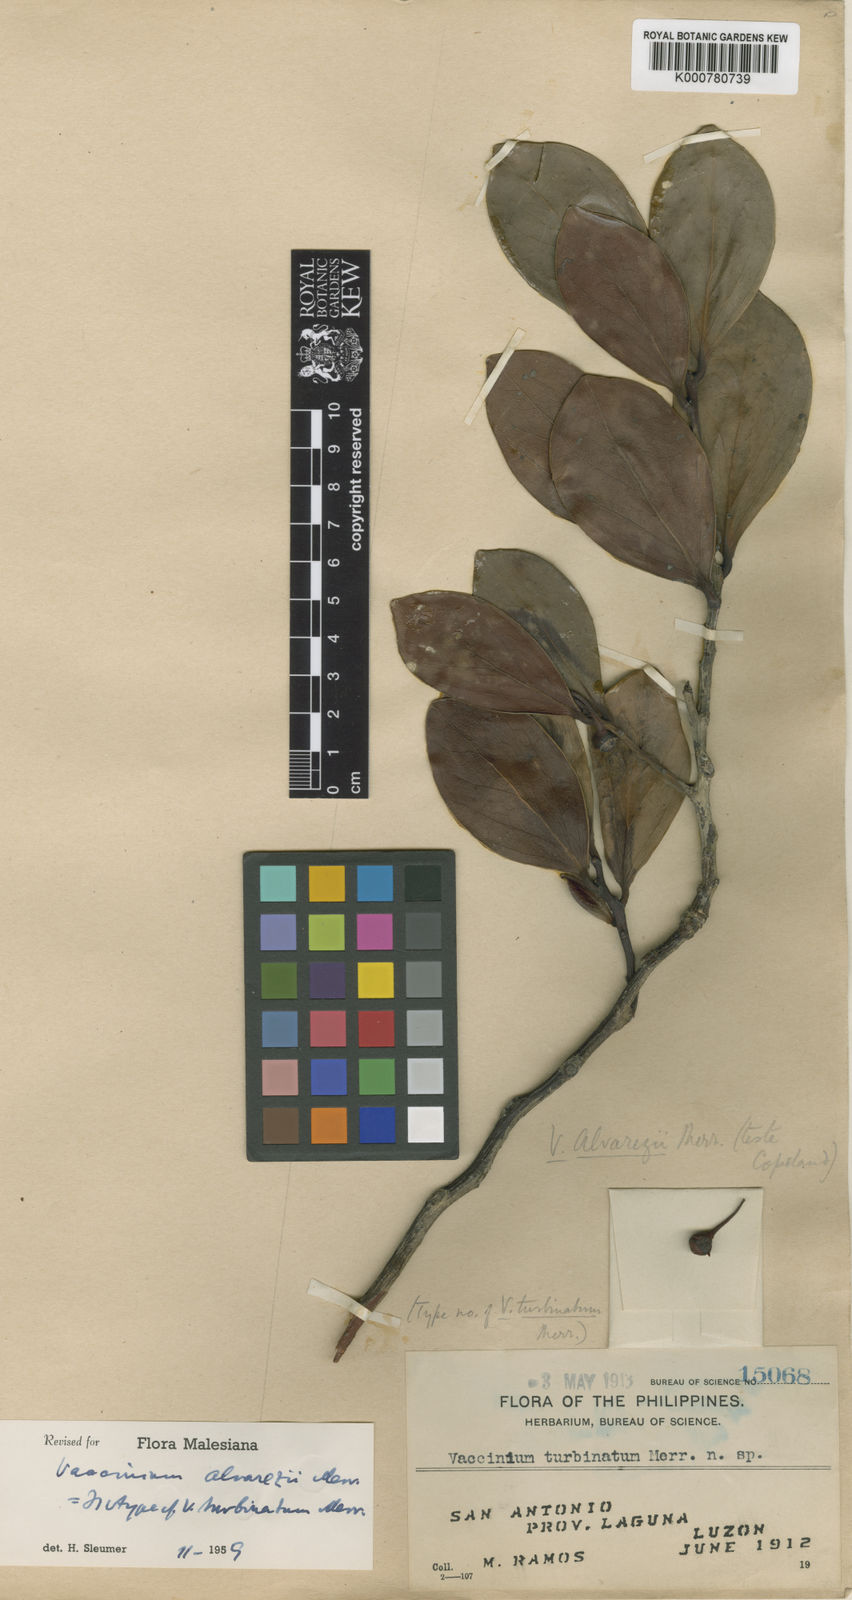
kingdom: Plantae
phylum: Tracheophyta
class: Magnoliopsida
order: Ericales
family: Ericaceae
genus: Vaccinium
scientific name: Vaccinium alvarezii
